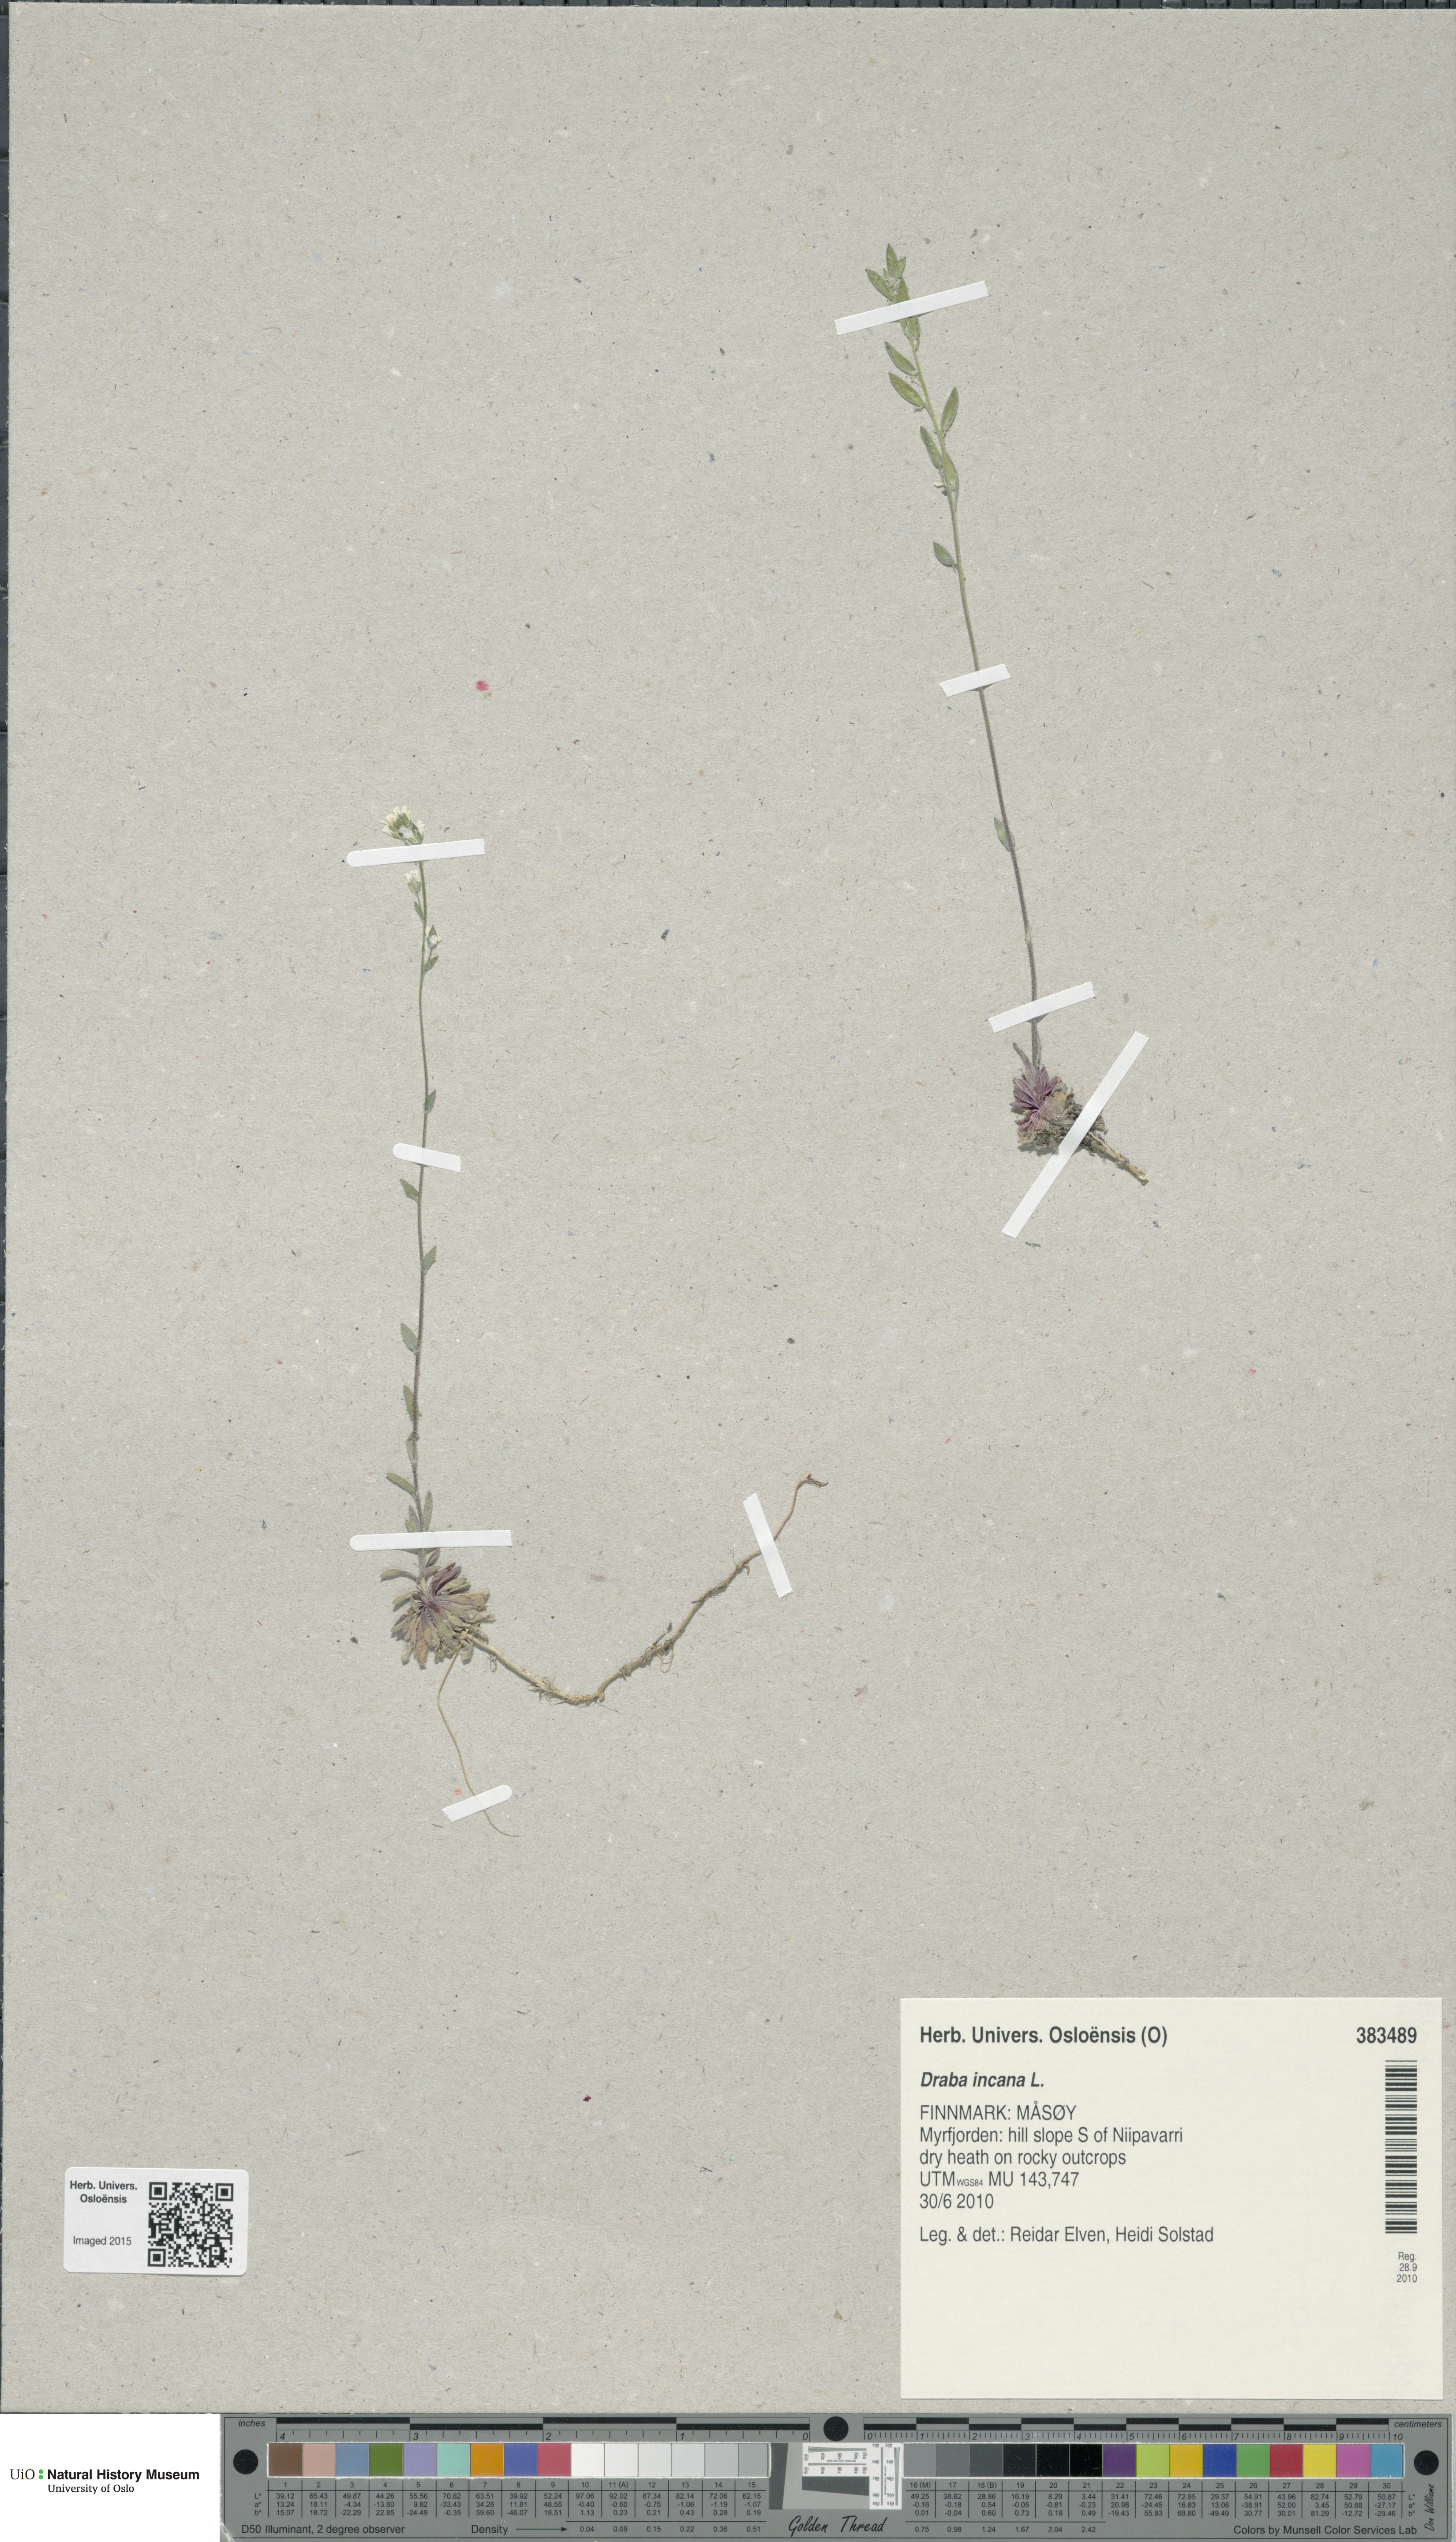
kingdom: Plantae
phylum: Tracheophyta
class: Magnoliopsida
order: Brassicales
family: Brassicaceae
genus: Draba
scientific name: Draba incana
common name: Hoary whitlow-grass
